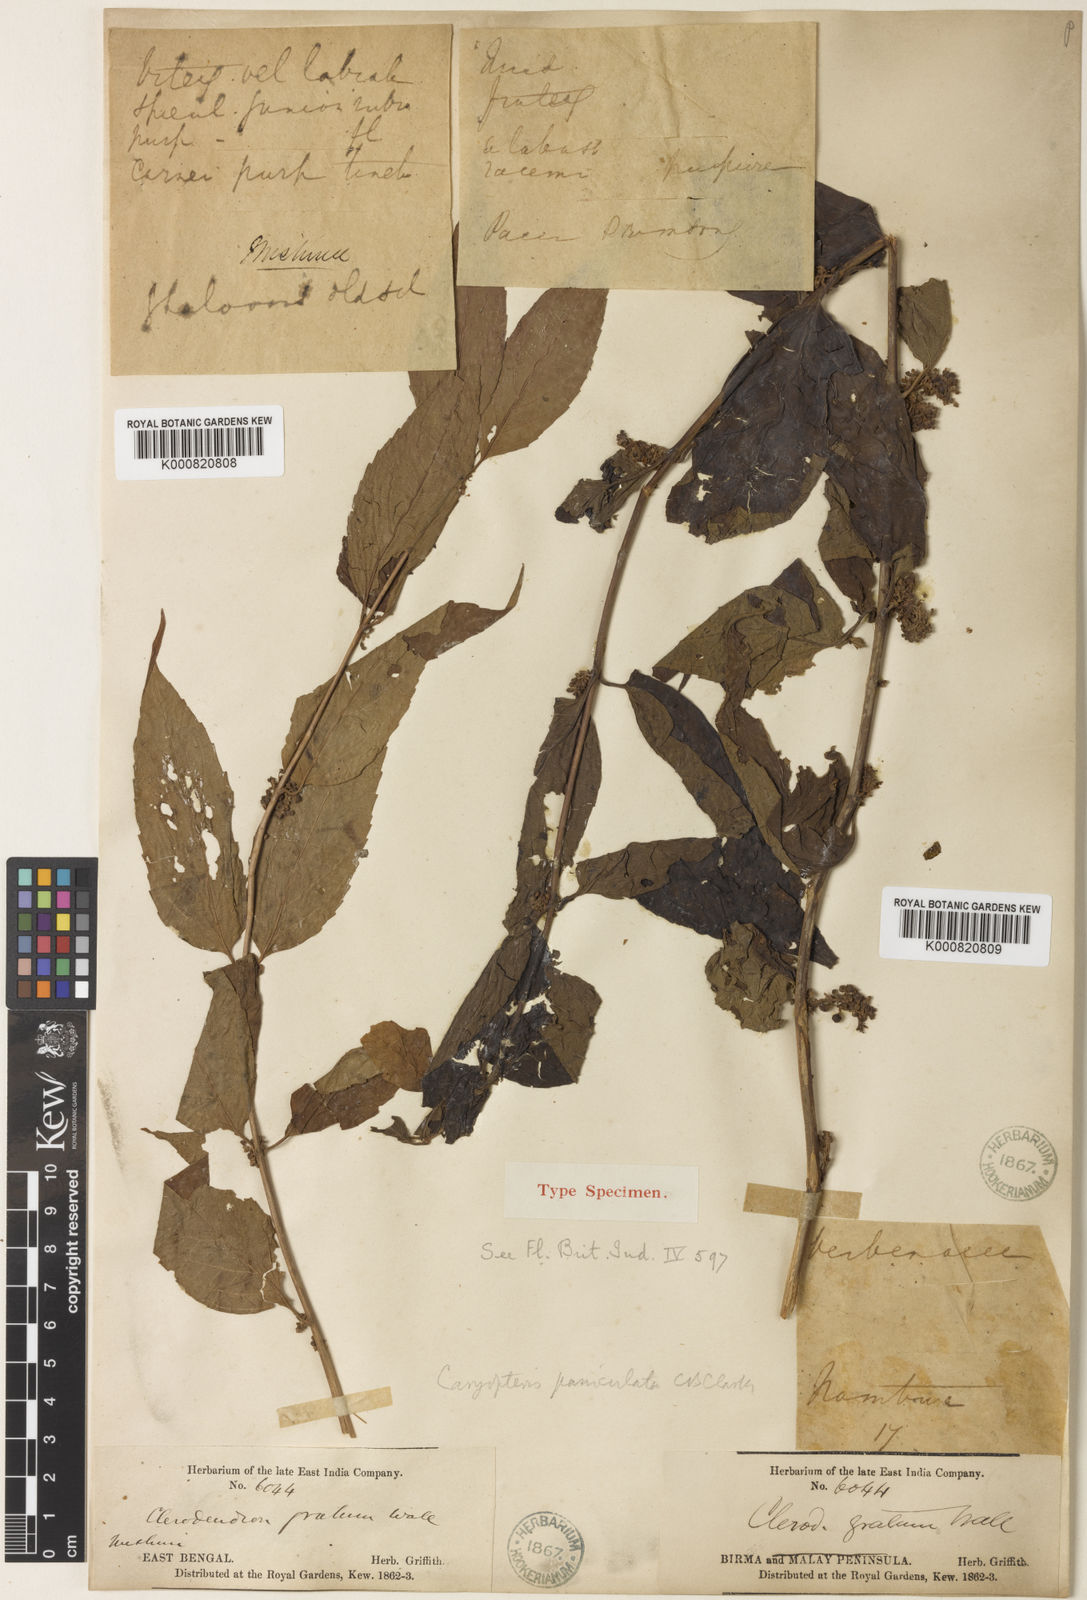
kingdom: Plantae
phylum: Tracheophyta
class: Magnoliopsida
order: Lamiales
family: Lamiaceae
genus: Pseudocaryopteris
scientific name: Pseudocaryopteris foetida
